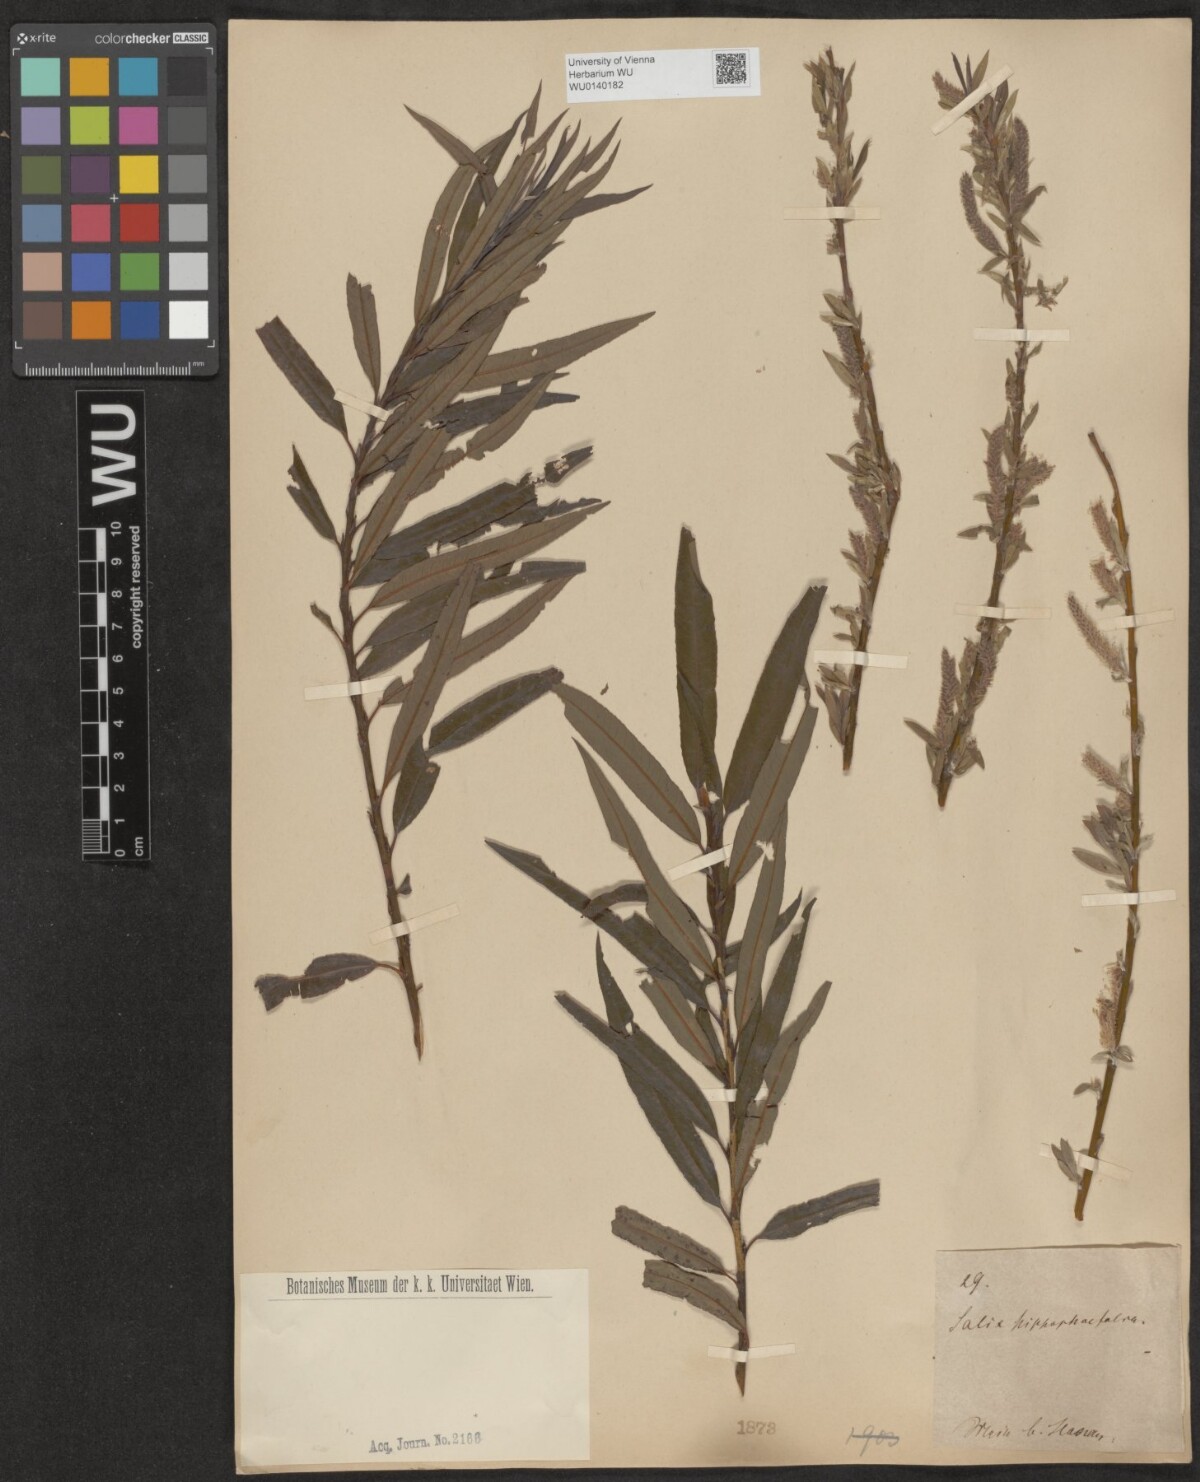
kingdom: Plantae
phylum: Tracheophyta
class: Magnoliopsida
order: Malpighiales
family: Salicaceae
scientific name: Salicaceae
